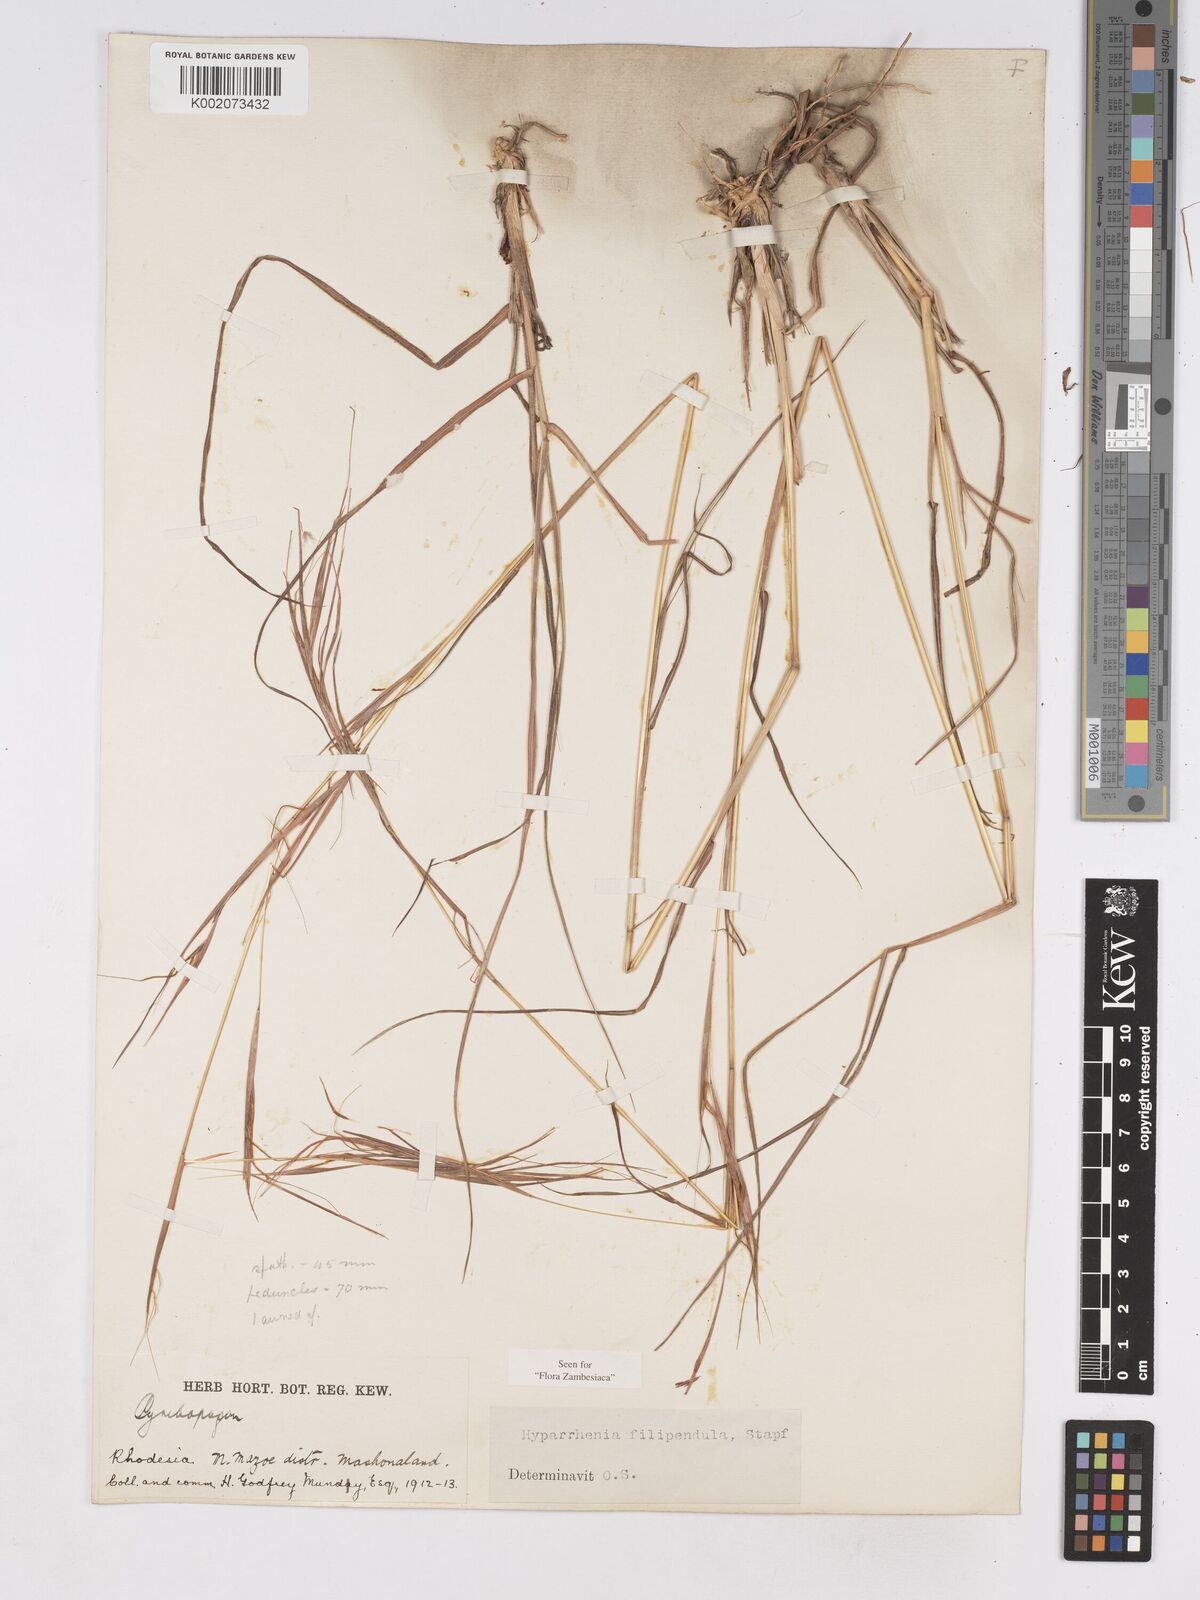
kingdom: Plantae
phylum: Tracheophyta
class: Liliopsida
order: Poales
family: Poaceae
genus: Hyparrhenia
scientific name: Hyparrhenia filipendula
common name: Tambookie grass
